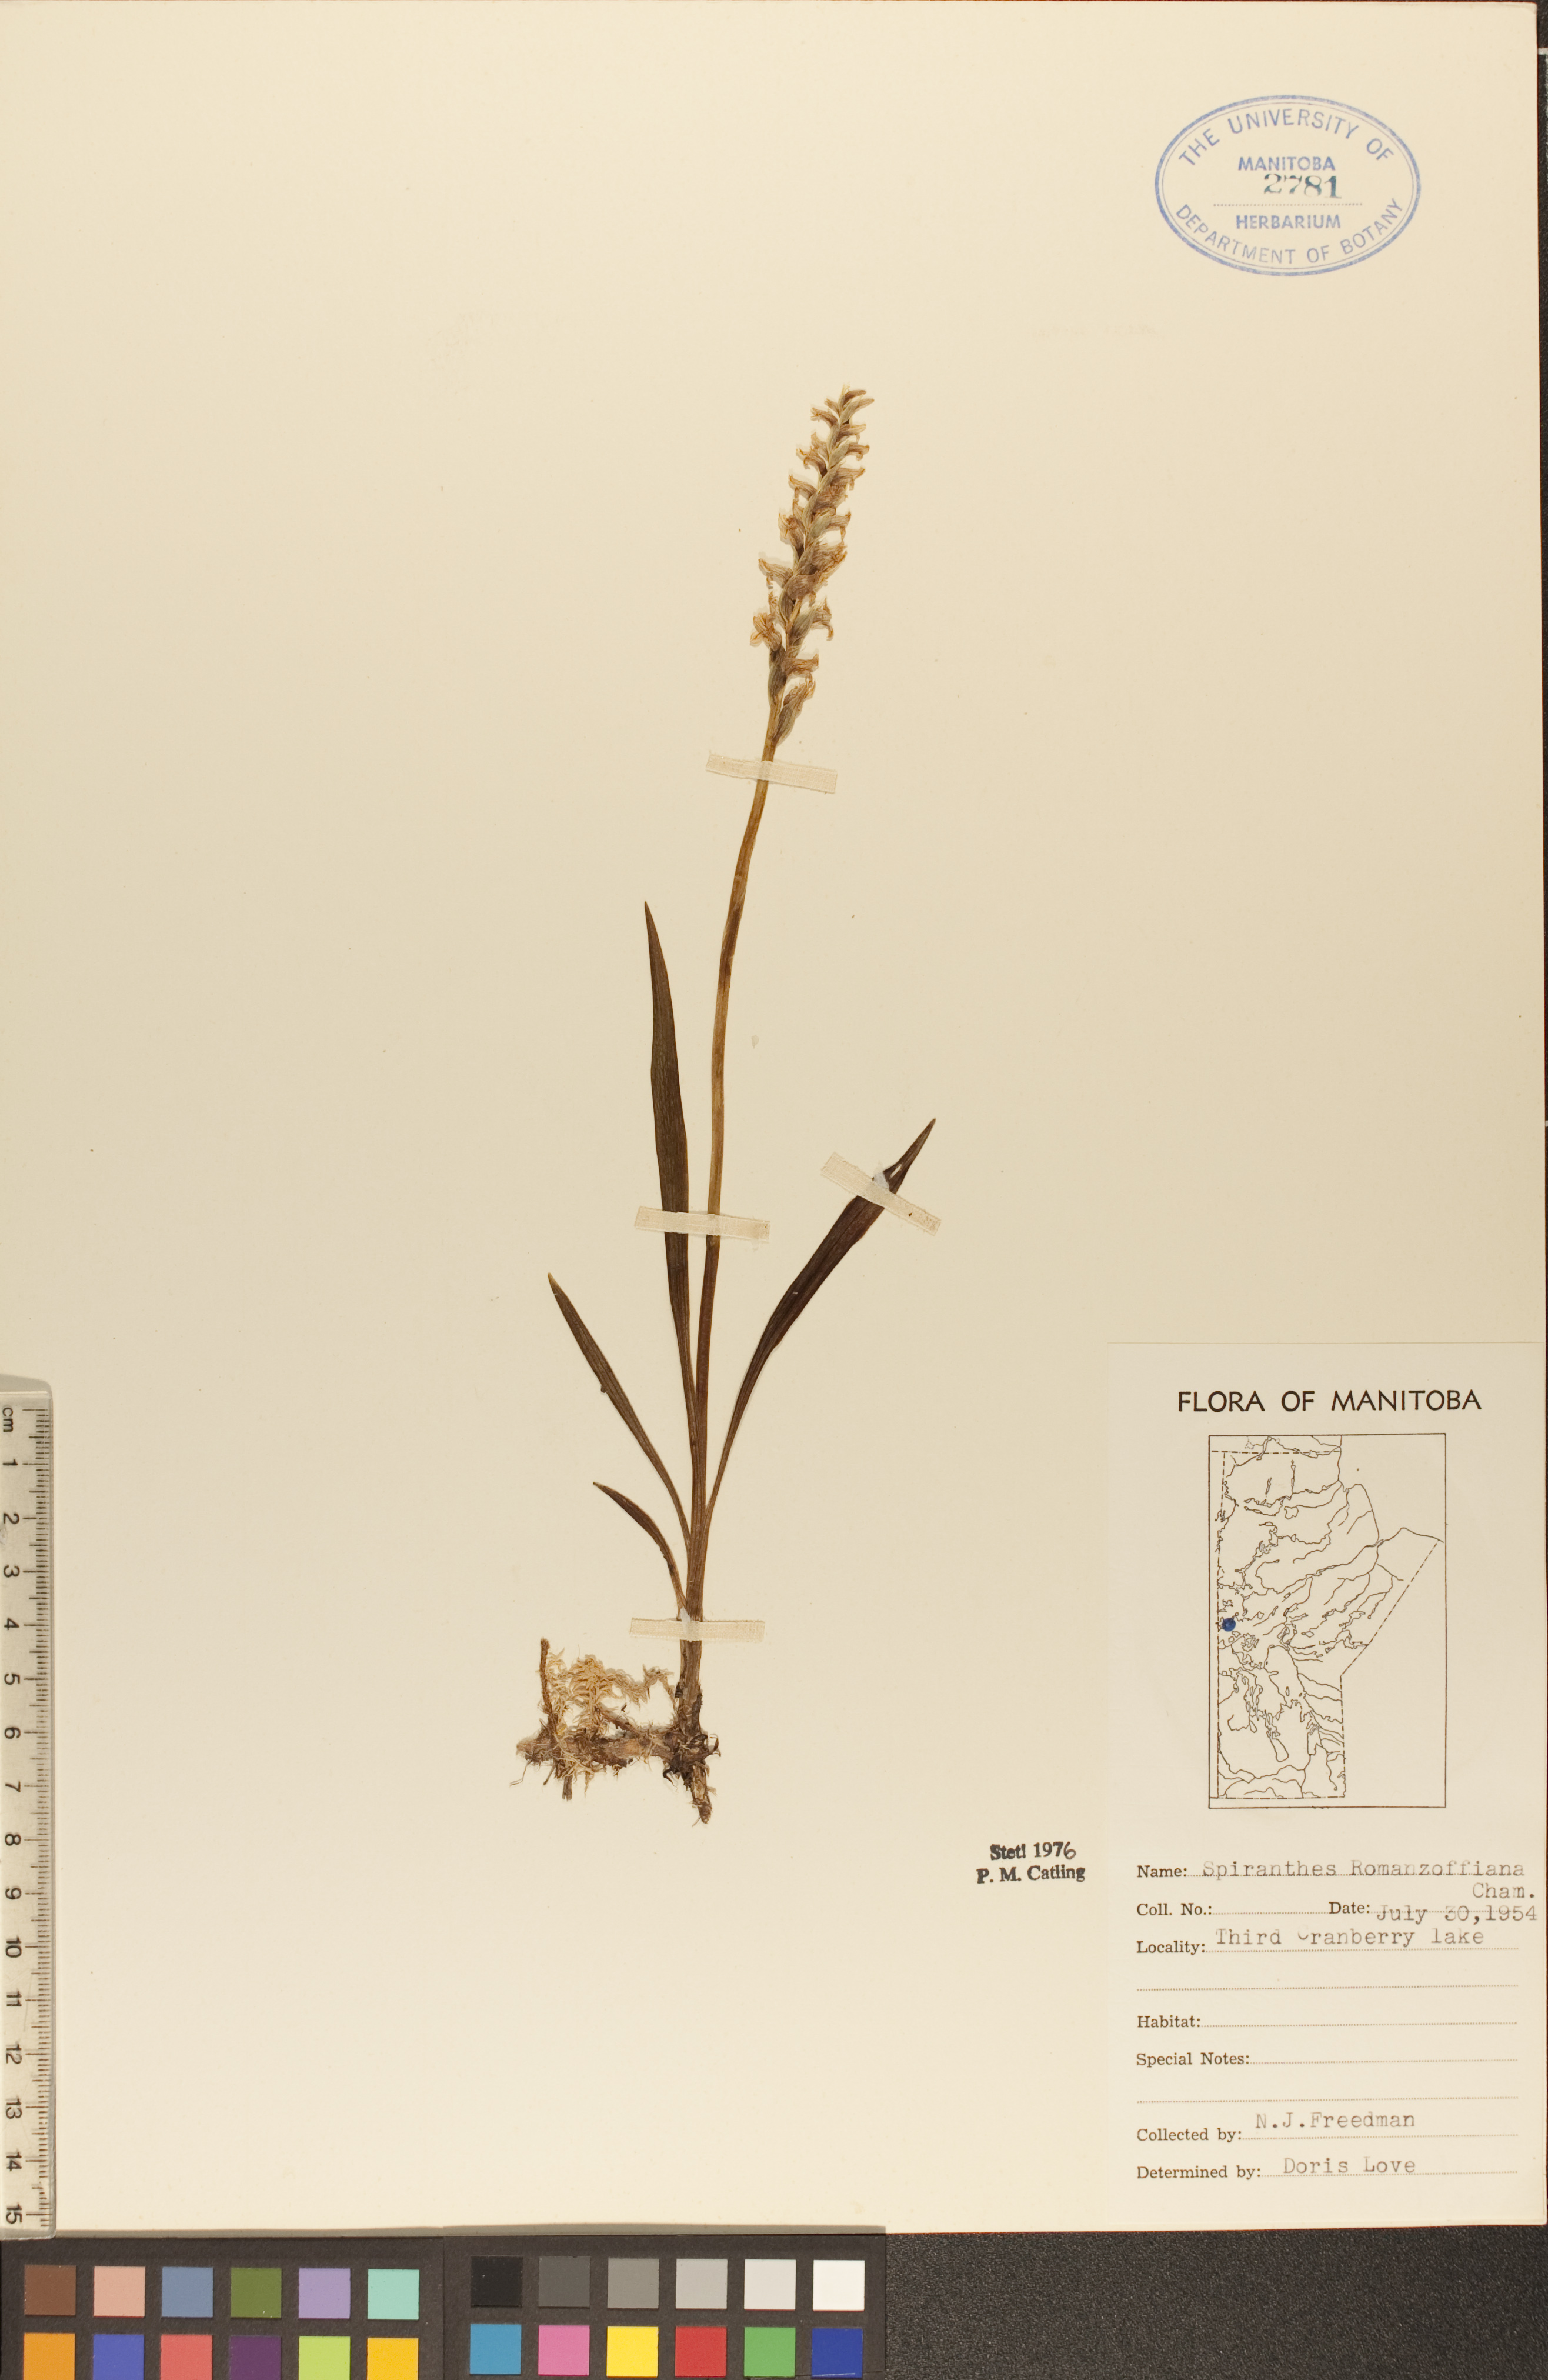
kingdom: Plantae
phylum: Tracheophyta
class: Liliopsida
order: Asparagales
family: Orchidaceae
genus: Spiranthes
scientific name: Spiranthes romanzoffiana
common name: Irish lady's-tresses
